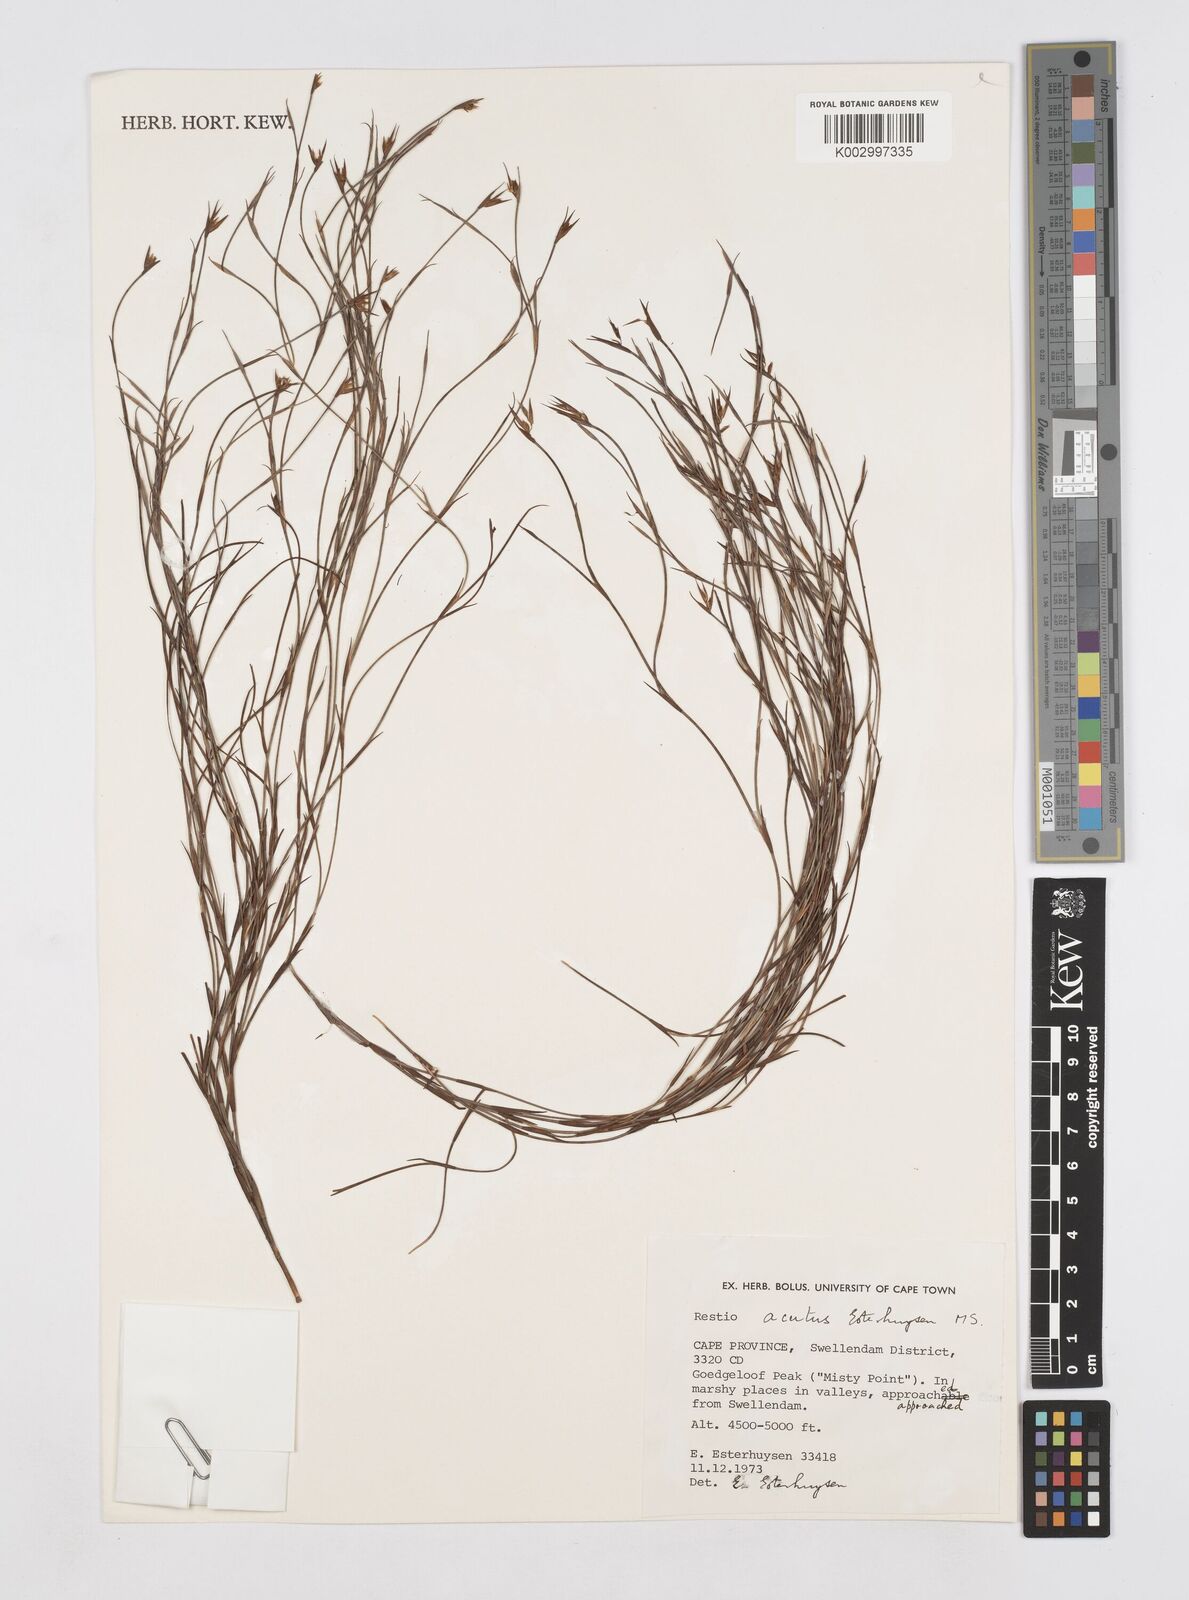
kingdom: Plantae
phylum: Tracheophyta
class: Liliopsida
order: Poales
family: Restionaceae
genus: Platycaulos
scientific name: Platycaulos acutus
